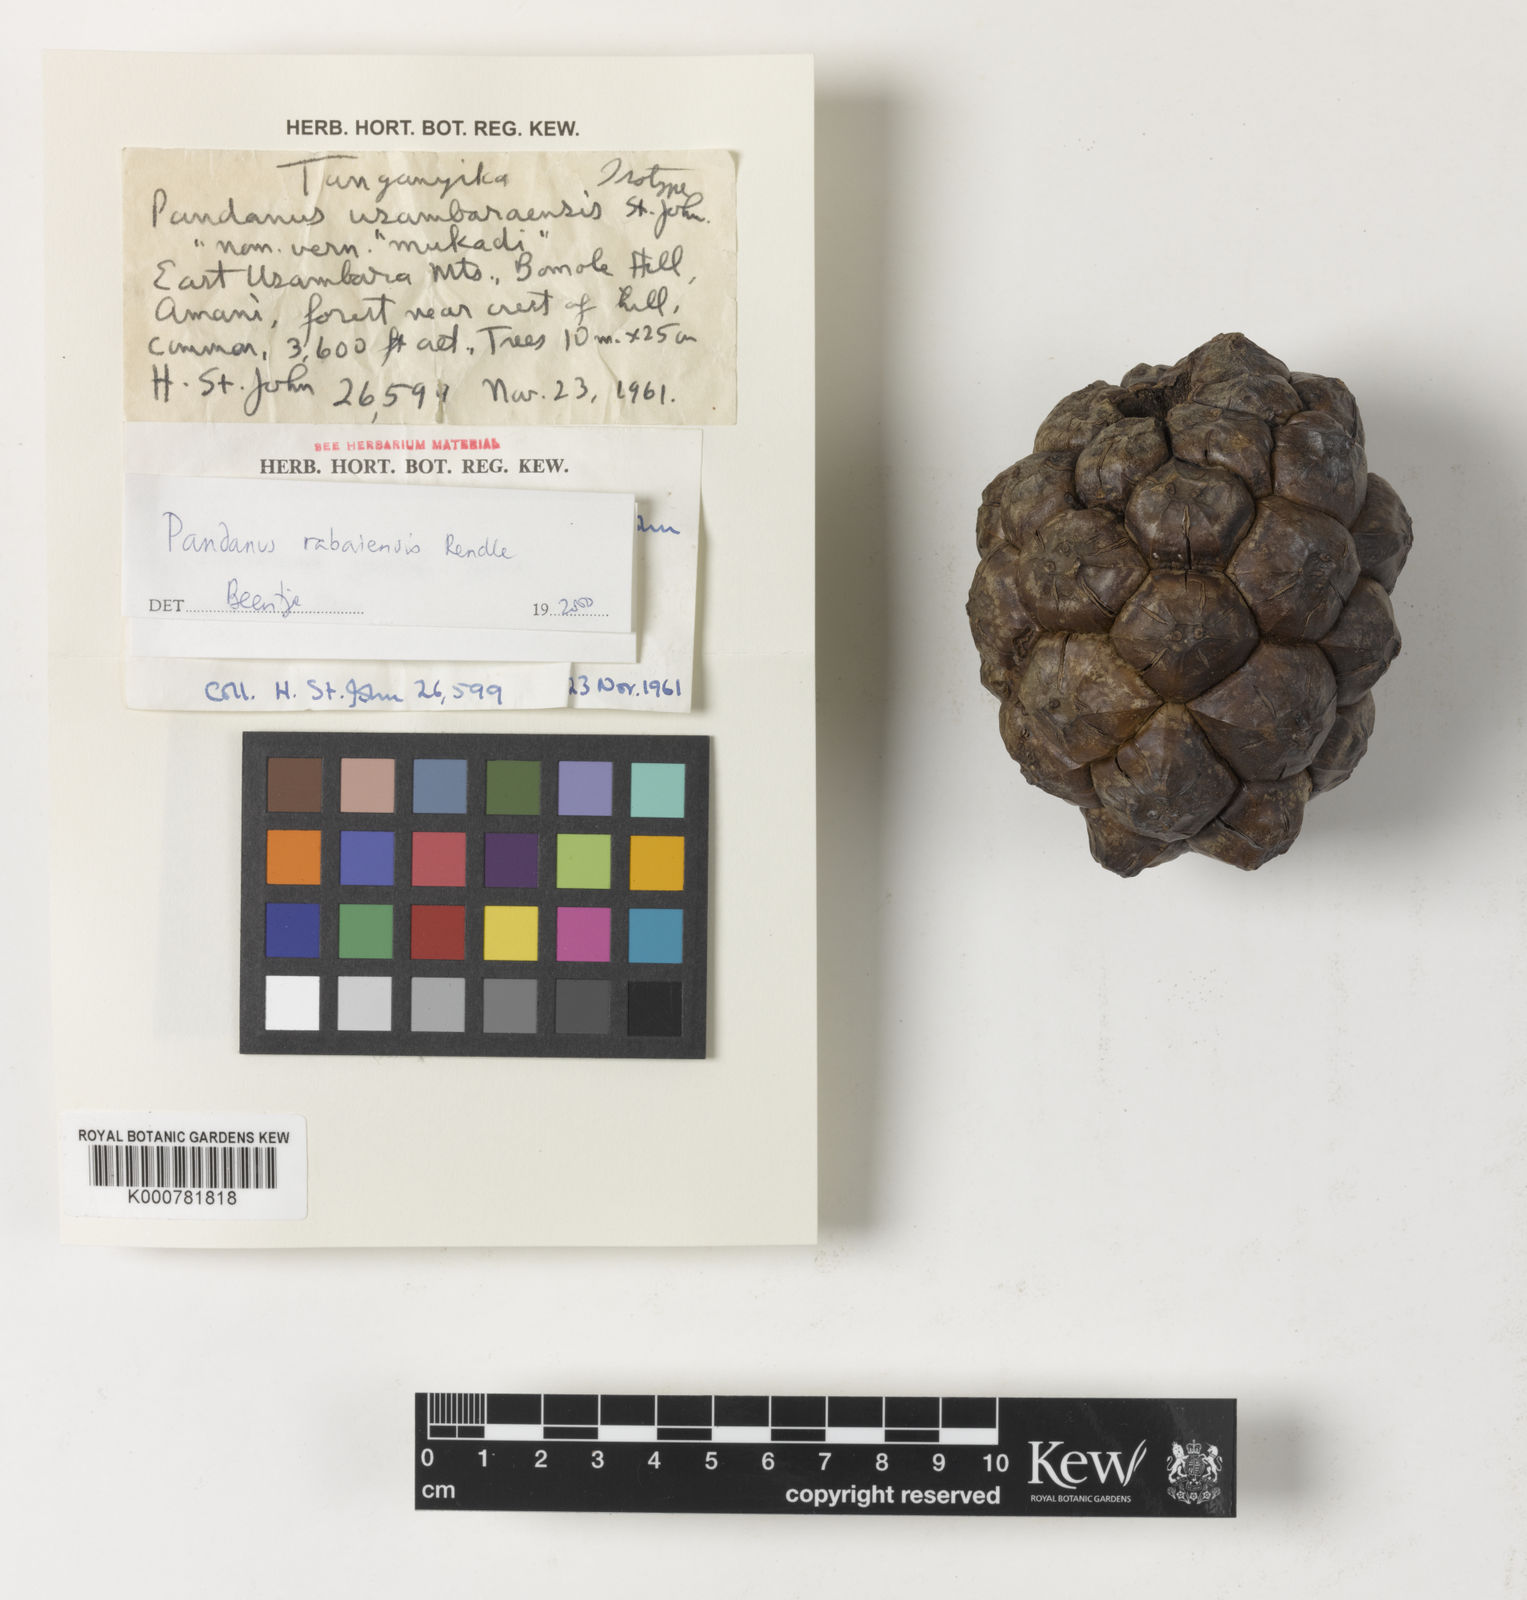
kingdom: Plantae
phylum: Tracheophyta
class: Liliopsida
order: Pandanales
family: Pandanaceae
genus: Pandanus
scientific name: Pandanus rabaiensis
